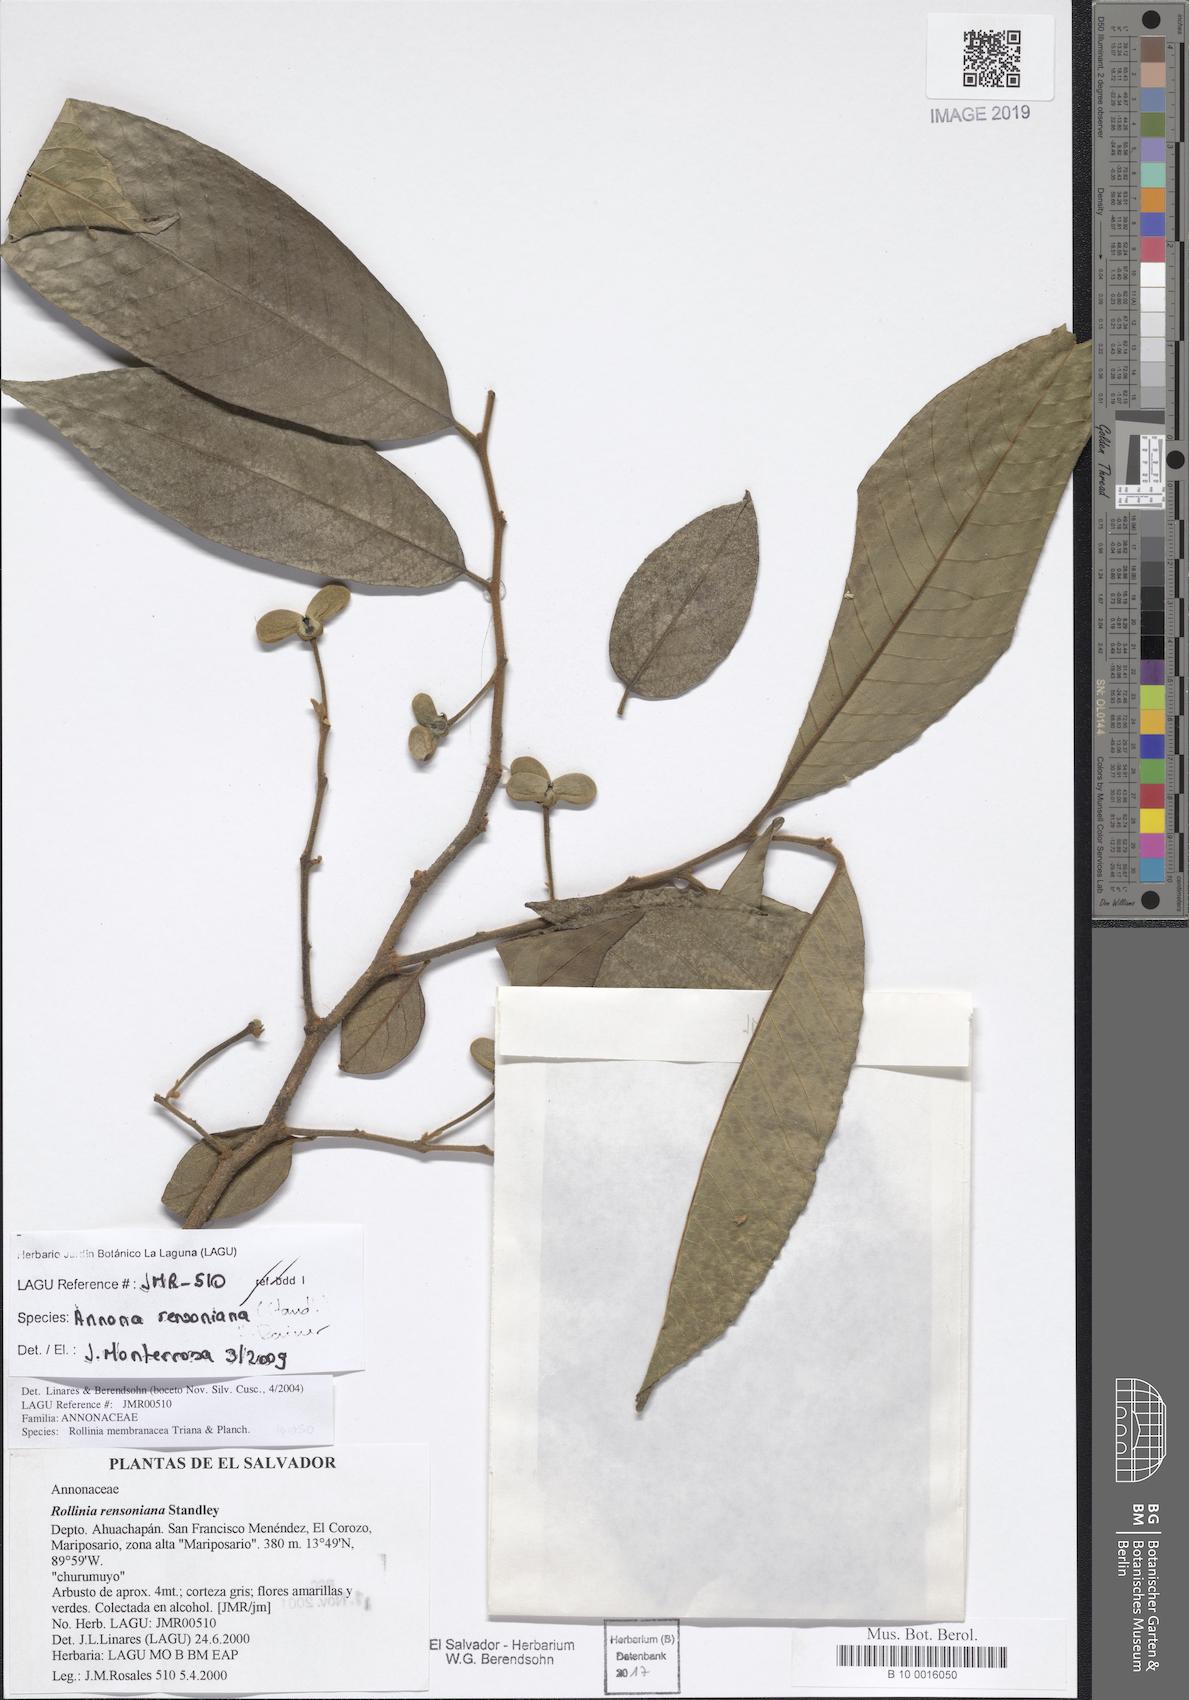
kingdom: Plantae
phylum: Tracheophyta
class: Magnoliopsida
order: Magnoliales
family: Annonaceae
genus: Annona
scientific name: Annona rensoniana
